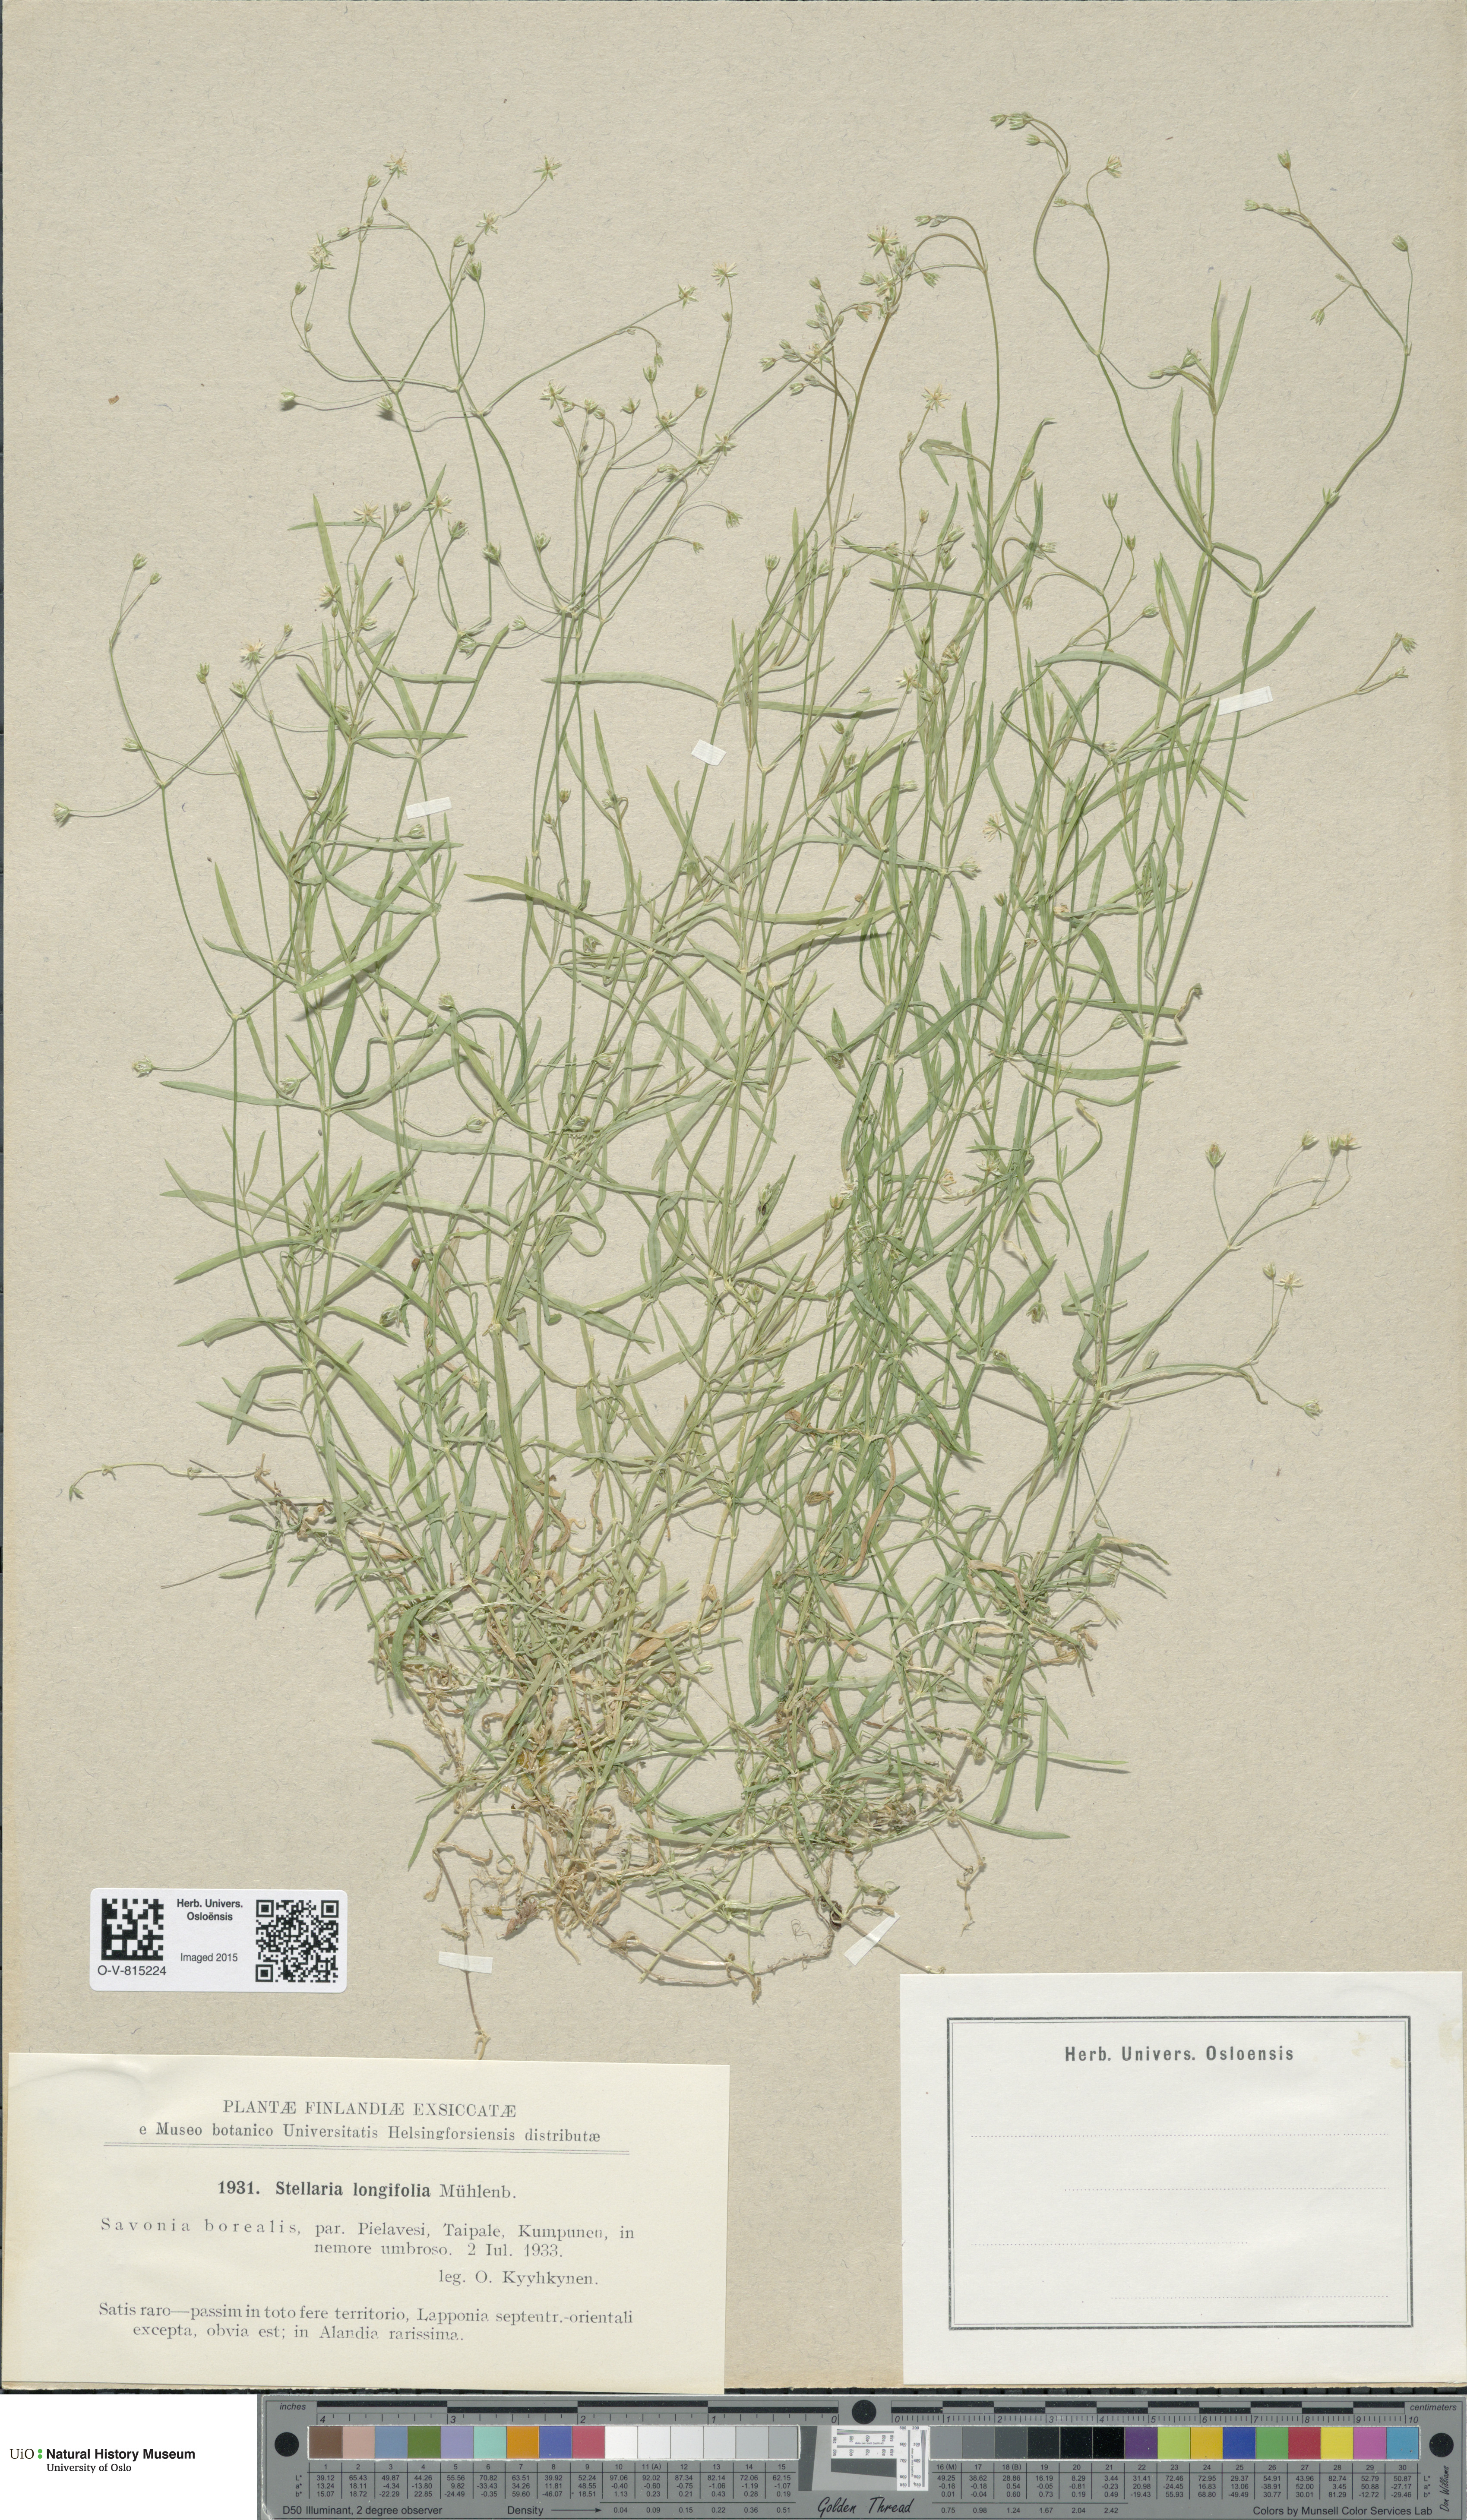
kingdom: Plantae
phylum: Tracheophyta
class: Magnoliopsida
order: Caryophyllales
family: Caryophyllaceae
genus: Stellaria
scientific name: Stellaria longifolia
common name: Long-leaved chickweed
